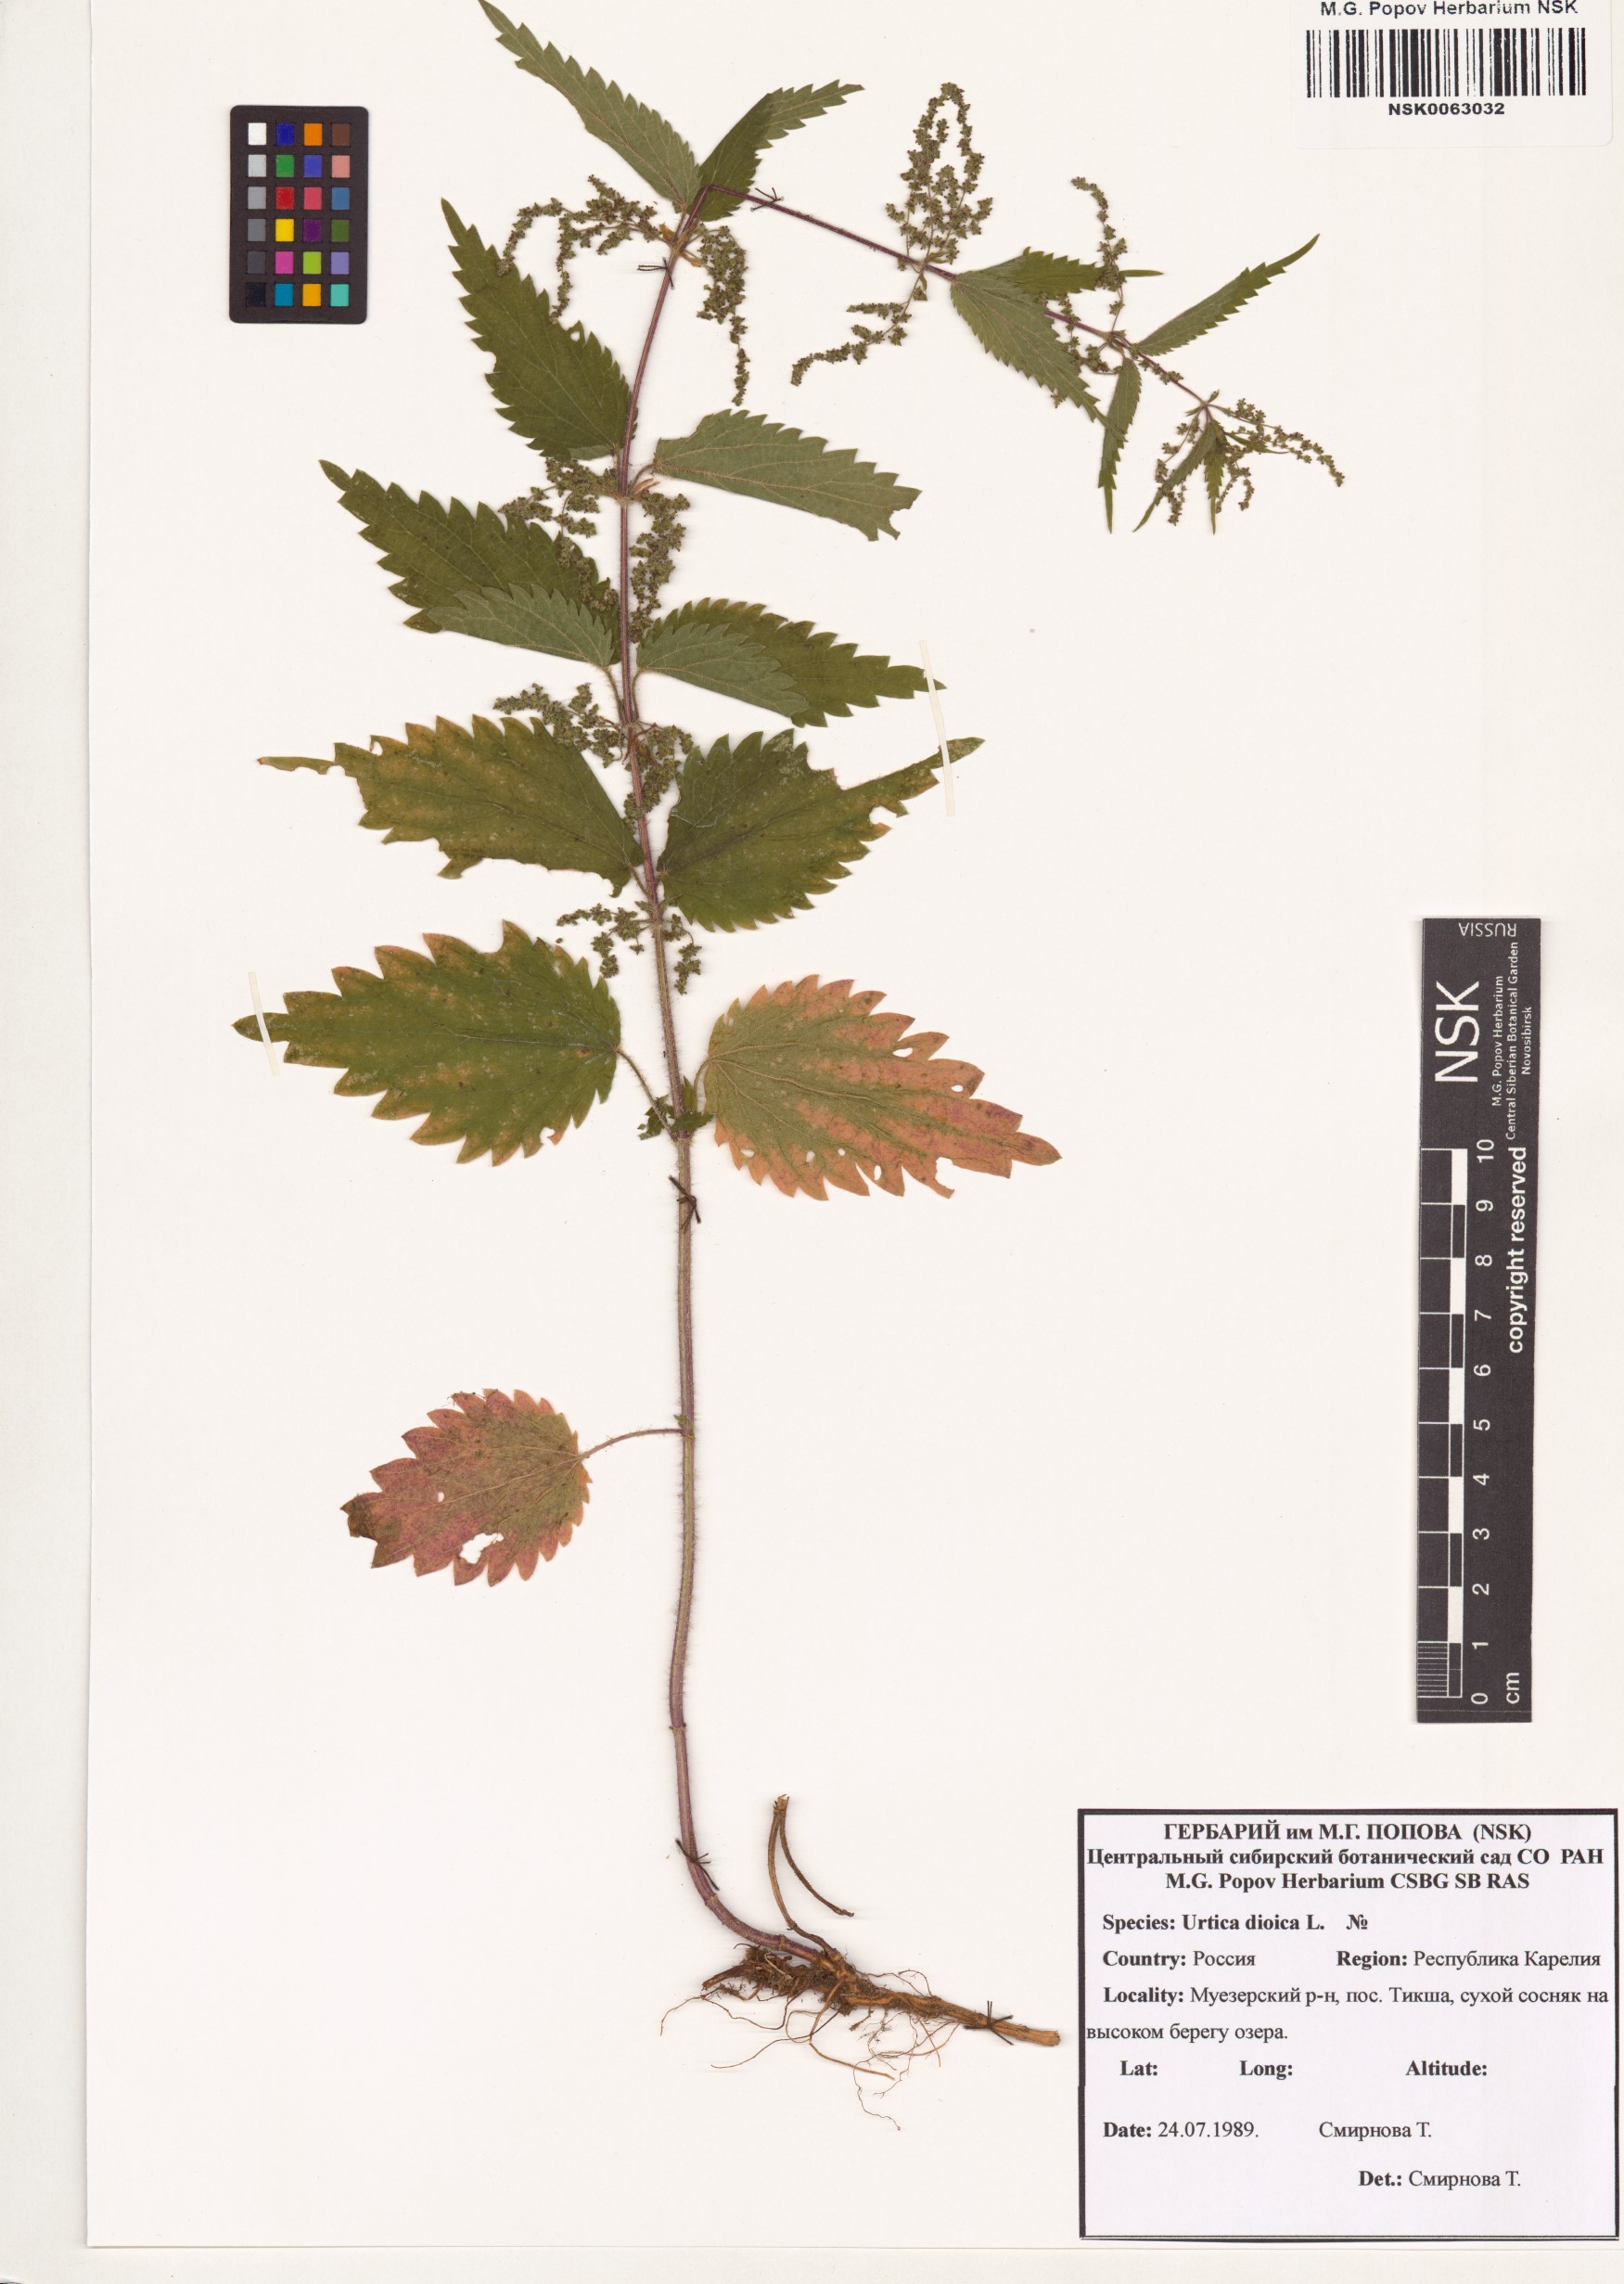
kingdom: Plantae
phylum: Tracheophyta
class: Magnoliopsida
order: Rosales
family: Urticaceae
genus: Urtica
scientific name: Urtica dioica
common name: Common nettle
